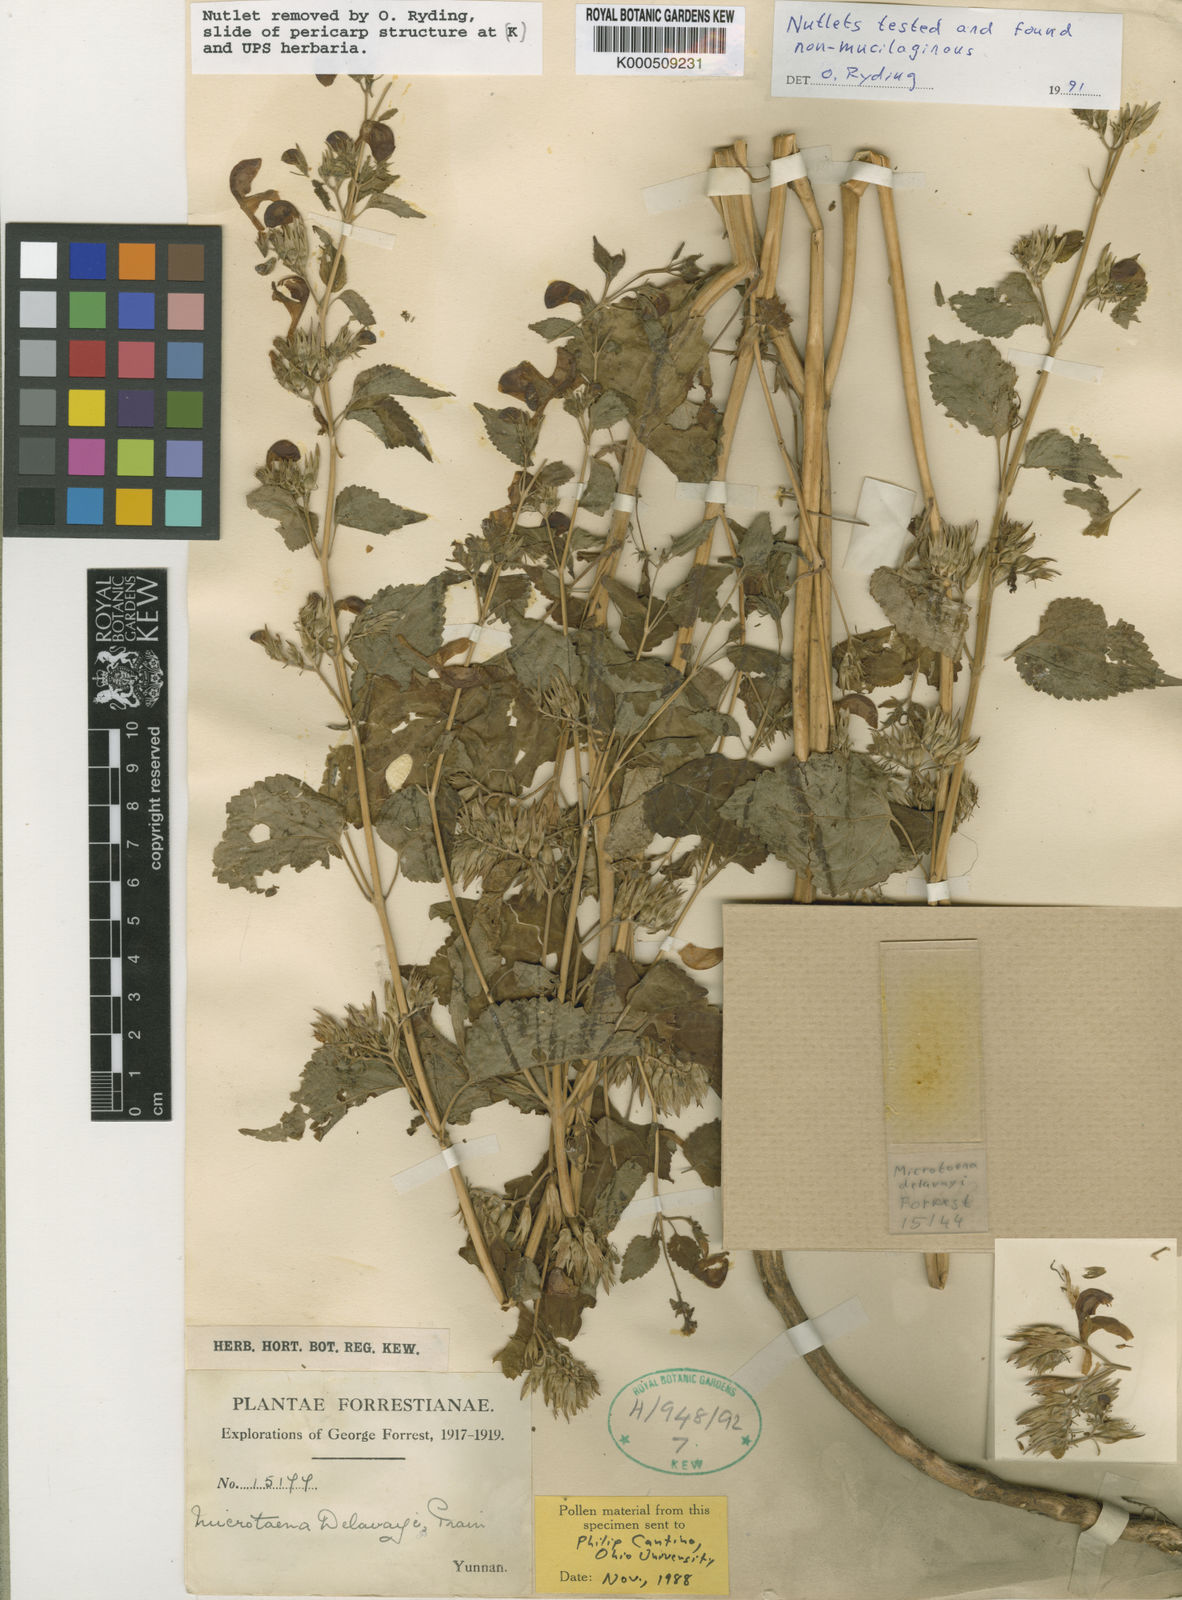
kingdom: Plantae
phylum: Tracheophyta
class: Magnoliopsida
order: Lamiales
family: Lamiaceae
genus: Microtoena
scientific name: Microtoena delavayi
